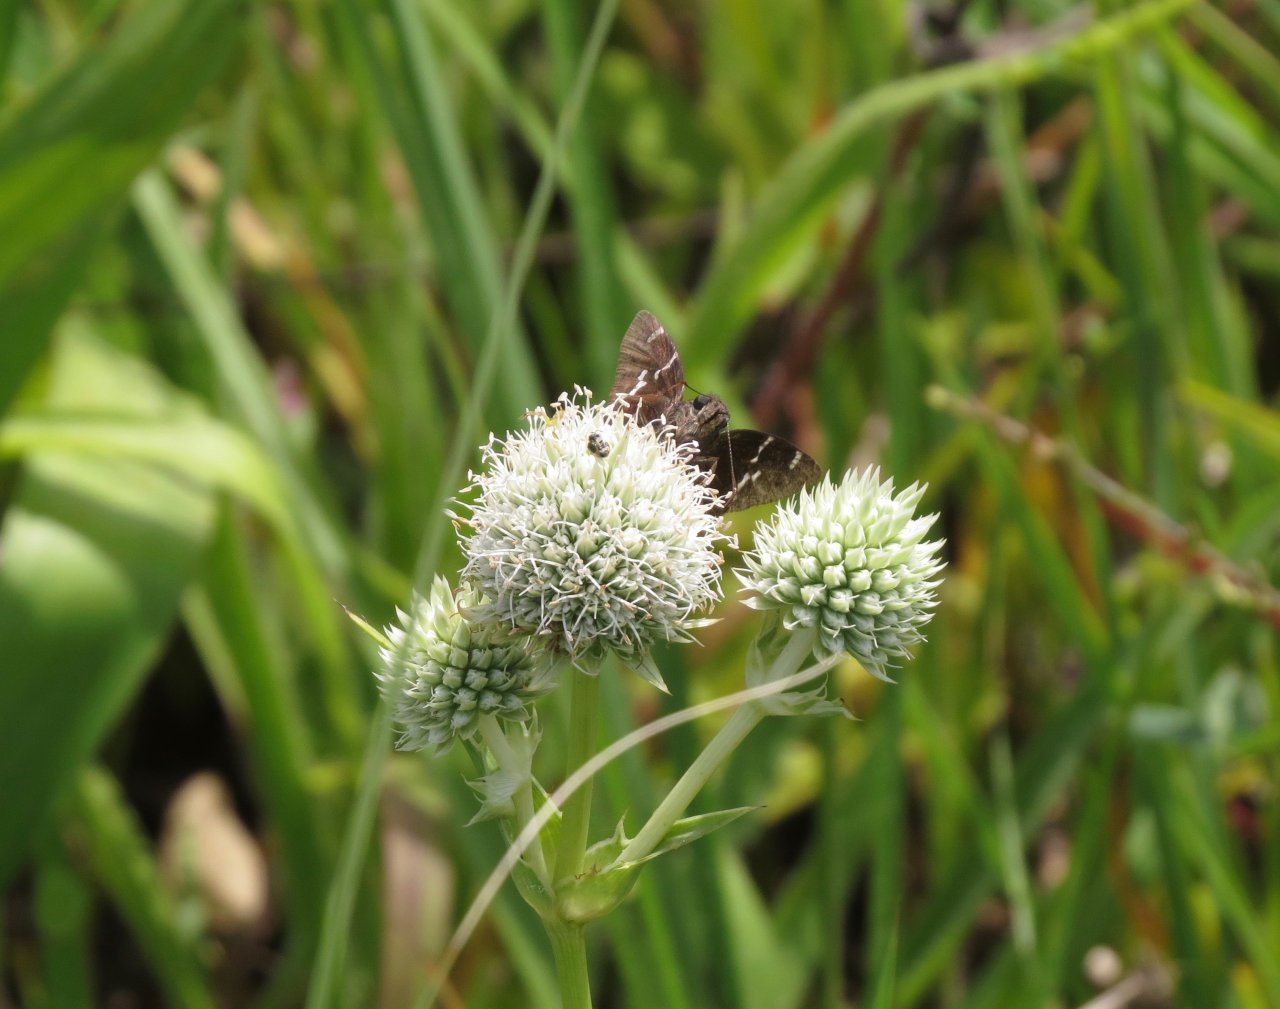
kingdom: Animalia
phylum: Arthropoda
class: Insecta
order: Lepidoptera
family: Hesperiidae
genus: Autochton
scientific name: Autochton
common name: Southern Cloudywing
